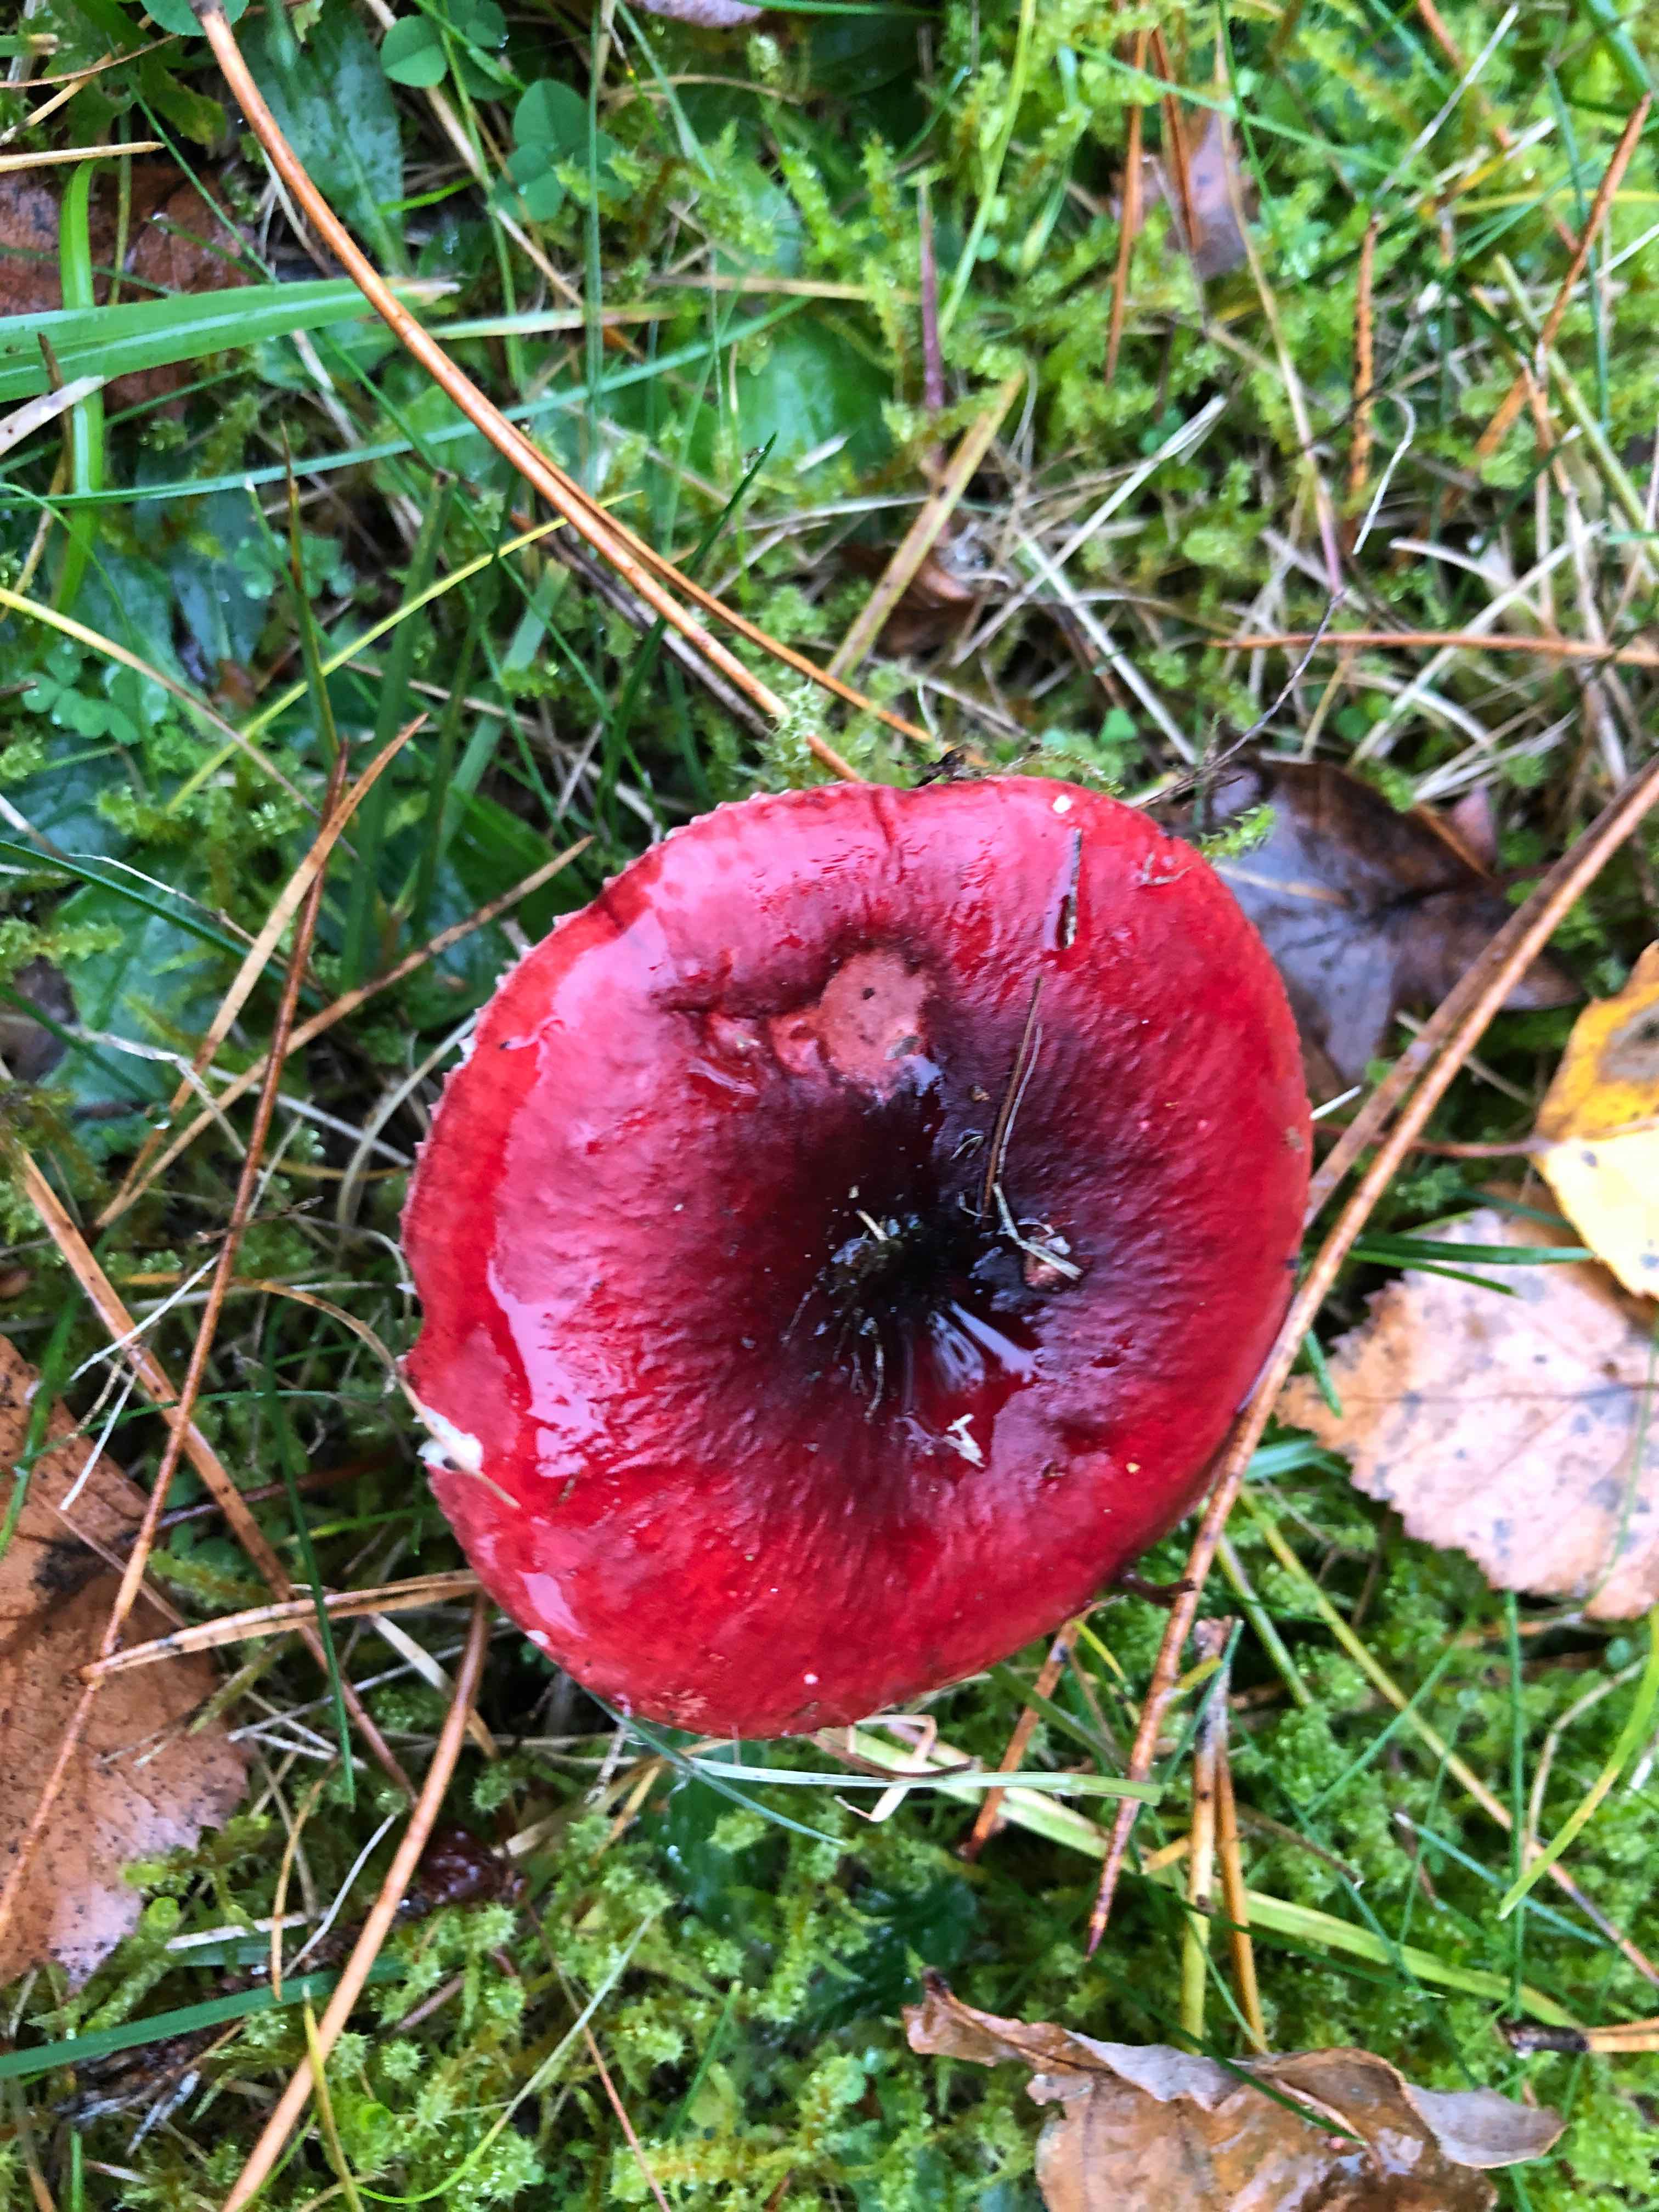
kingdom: Fungi
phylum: Basidiomycota
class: Agaricomycetes
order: Russulales
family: Russulaceae
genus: Russula
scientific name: Russula xerampelina
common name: hummer-skørhat
